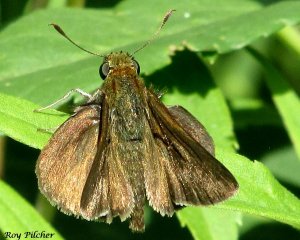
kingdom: Animalia
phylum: Arthropoda
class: Insecta
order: Lepidoptera
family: Hesperiidae
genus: Euphyes
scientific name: Euphyes vestris
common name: Dun Skipper
